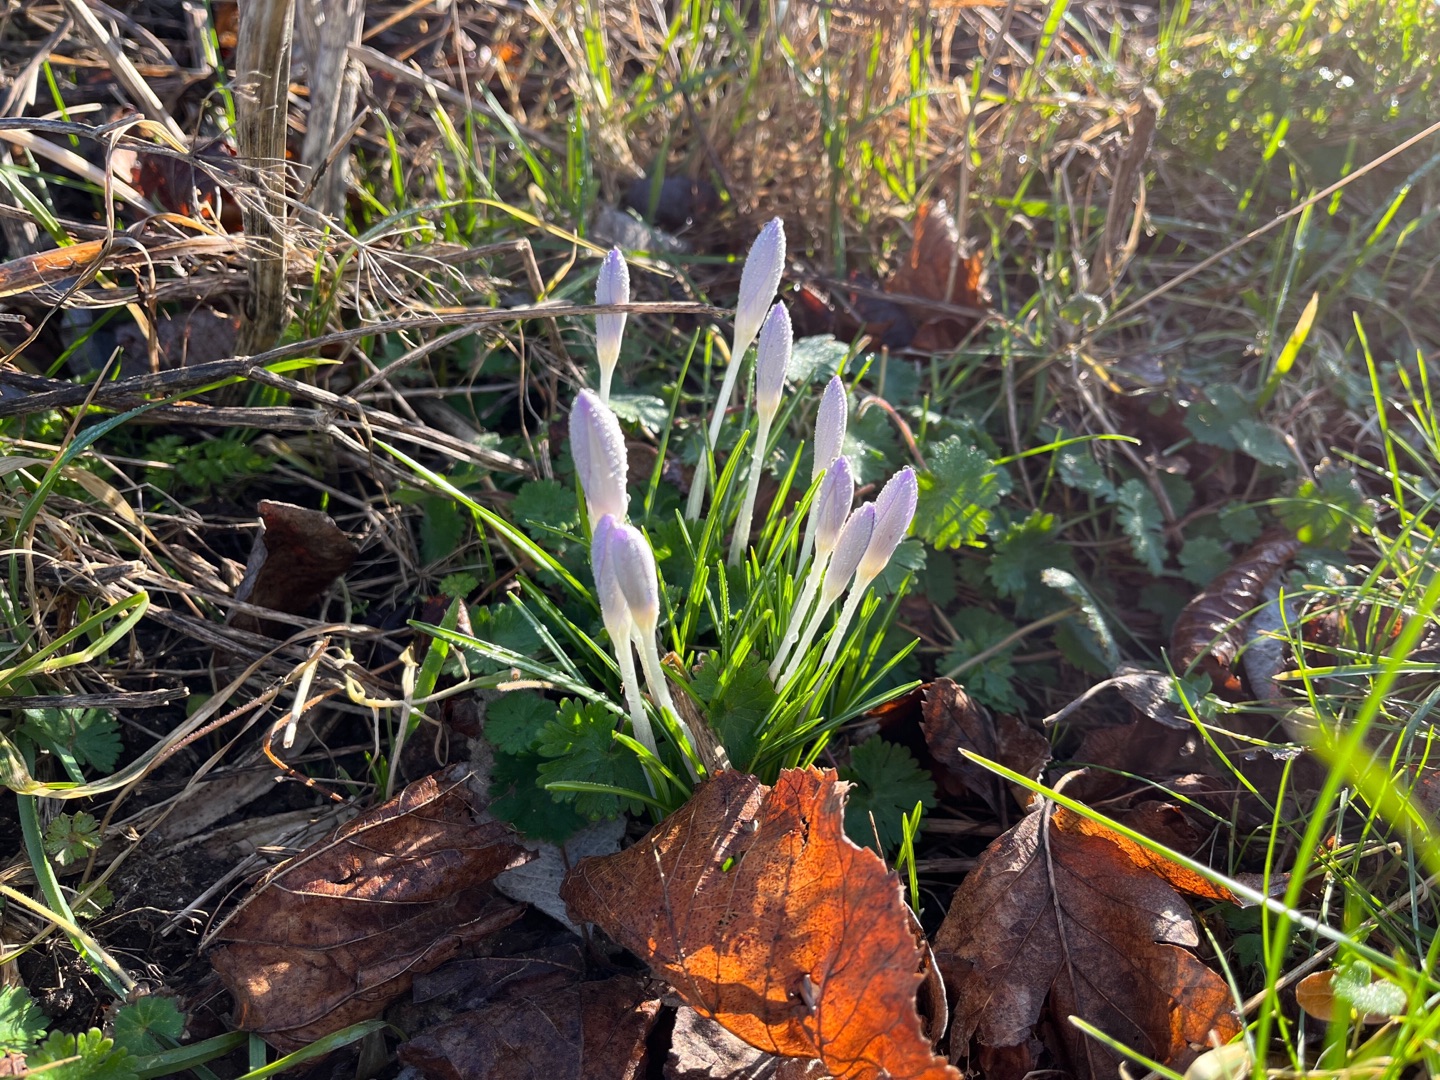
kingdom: Plantae
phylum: Tracheophyta
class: Liliopsida
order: Asparagales
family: Iridaceae
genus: Crocus
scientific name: Crocus tommasinianus
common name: Sne-krokus
